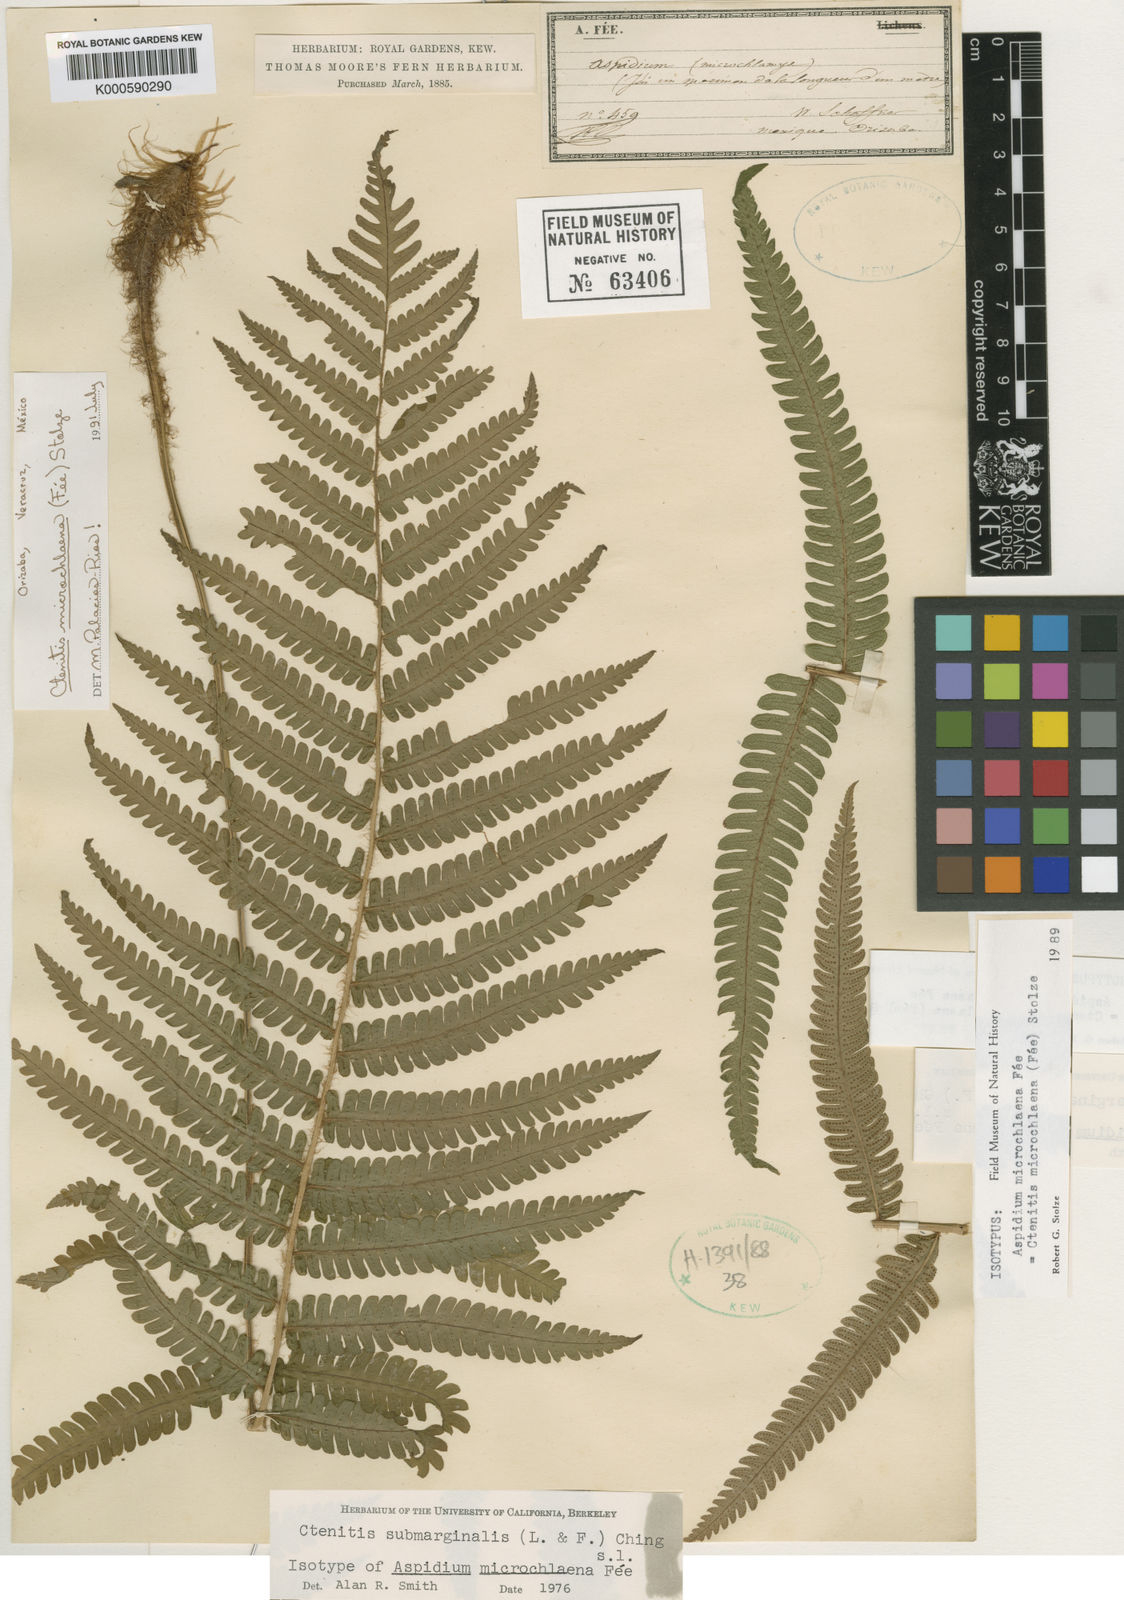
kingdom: Plantae
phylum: Tracheophyta
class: Polypodiopsida
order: Polypodiales
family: Dryopteridaceae
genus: Ctenitis
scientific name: Ctenitis
